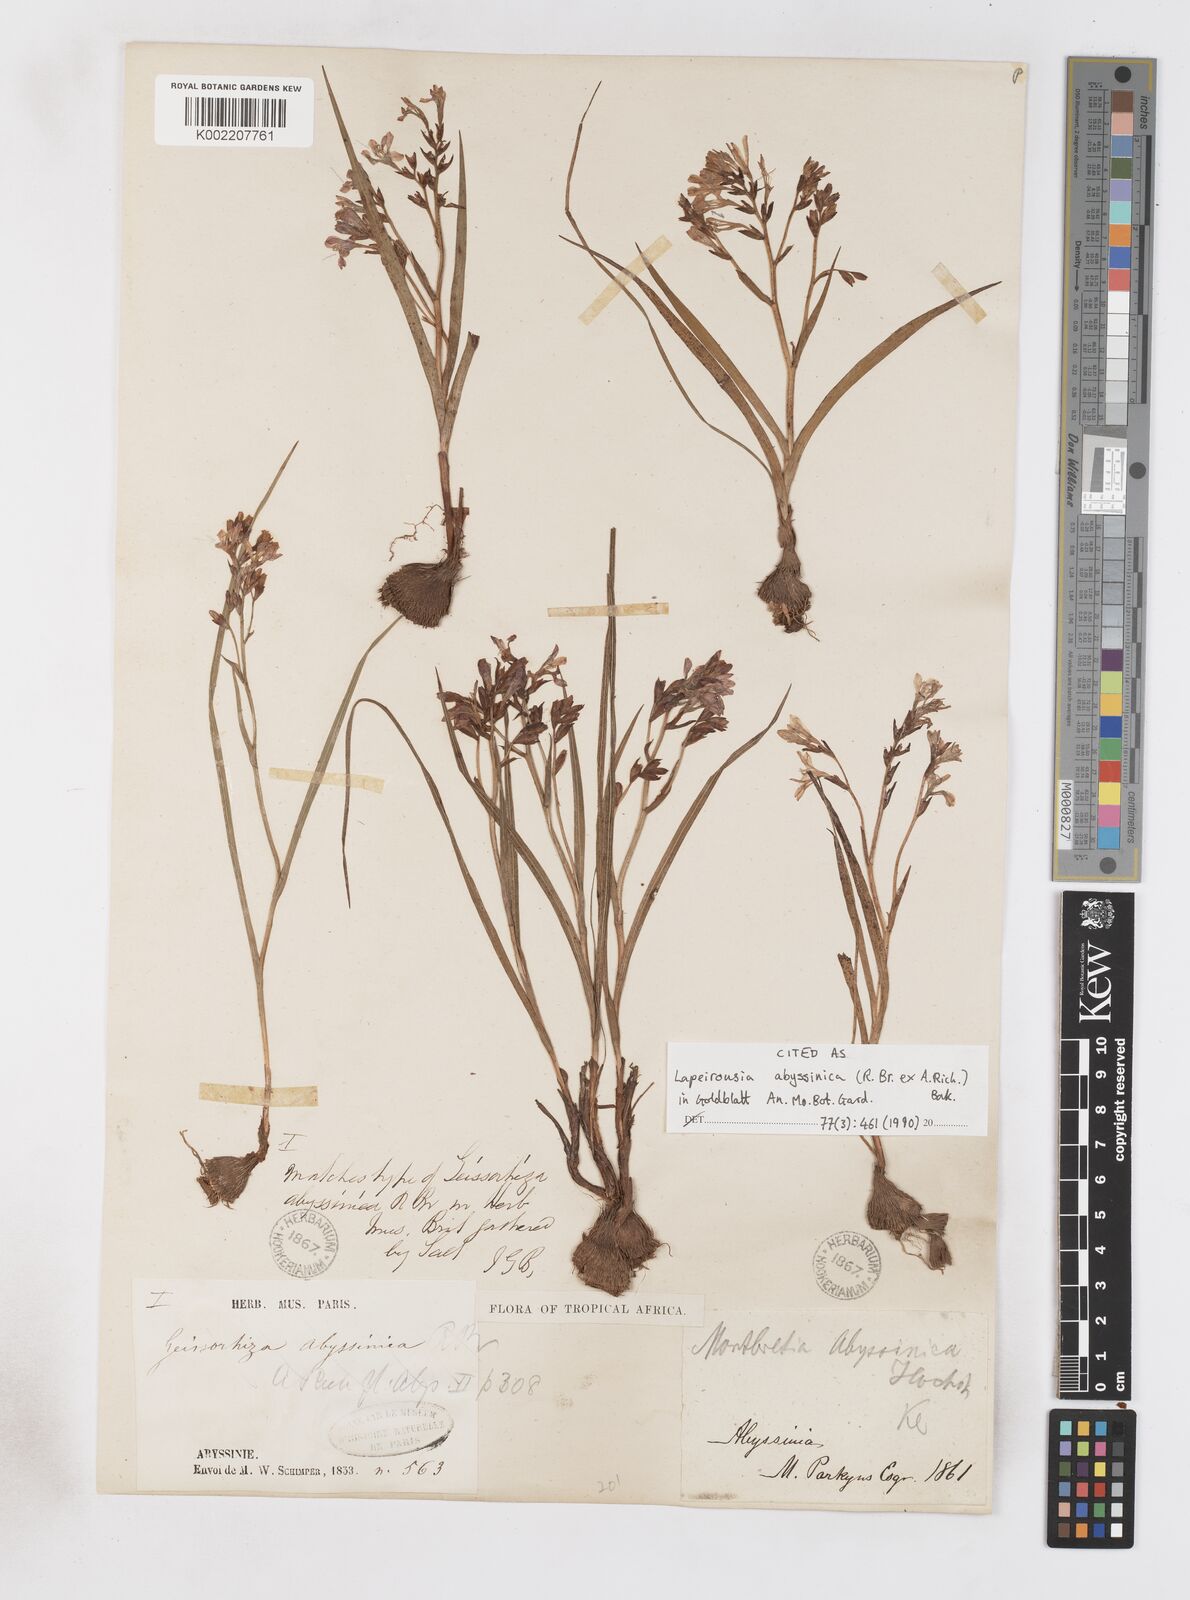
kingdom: Plantae
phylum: Tracheophyta
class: Liliopsida
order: Asparagales
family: Iridaceae
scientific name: Iridaceae
